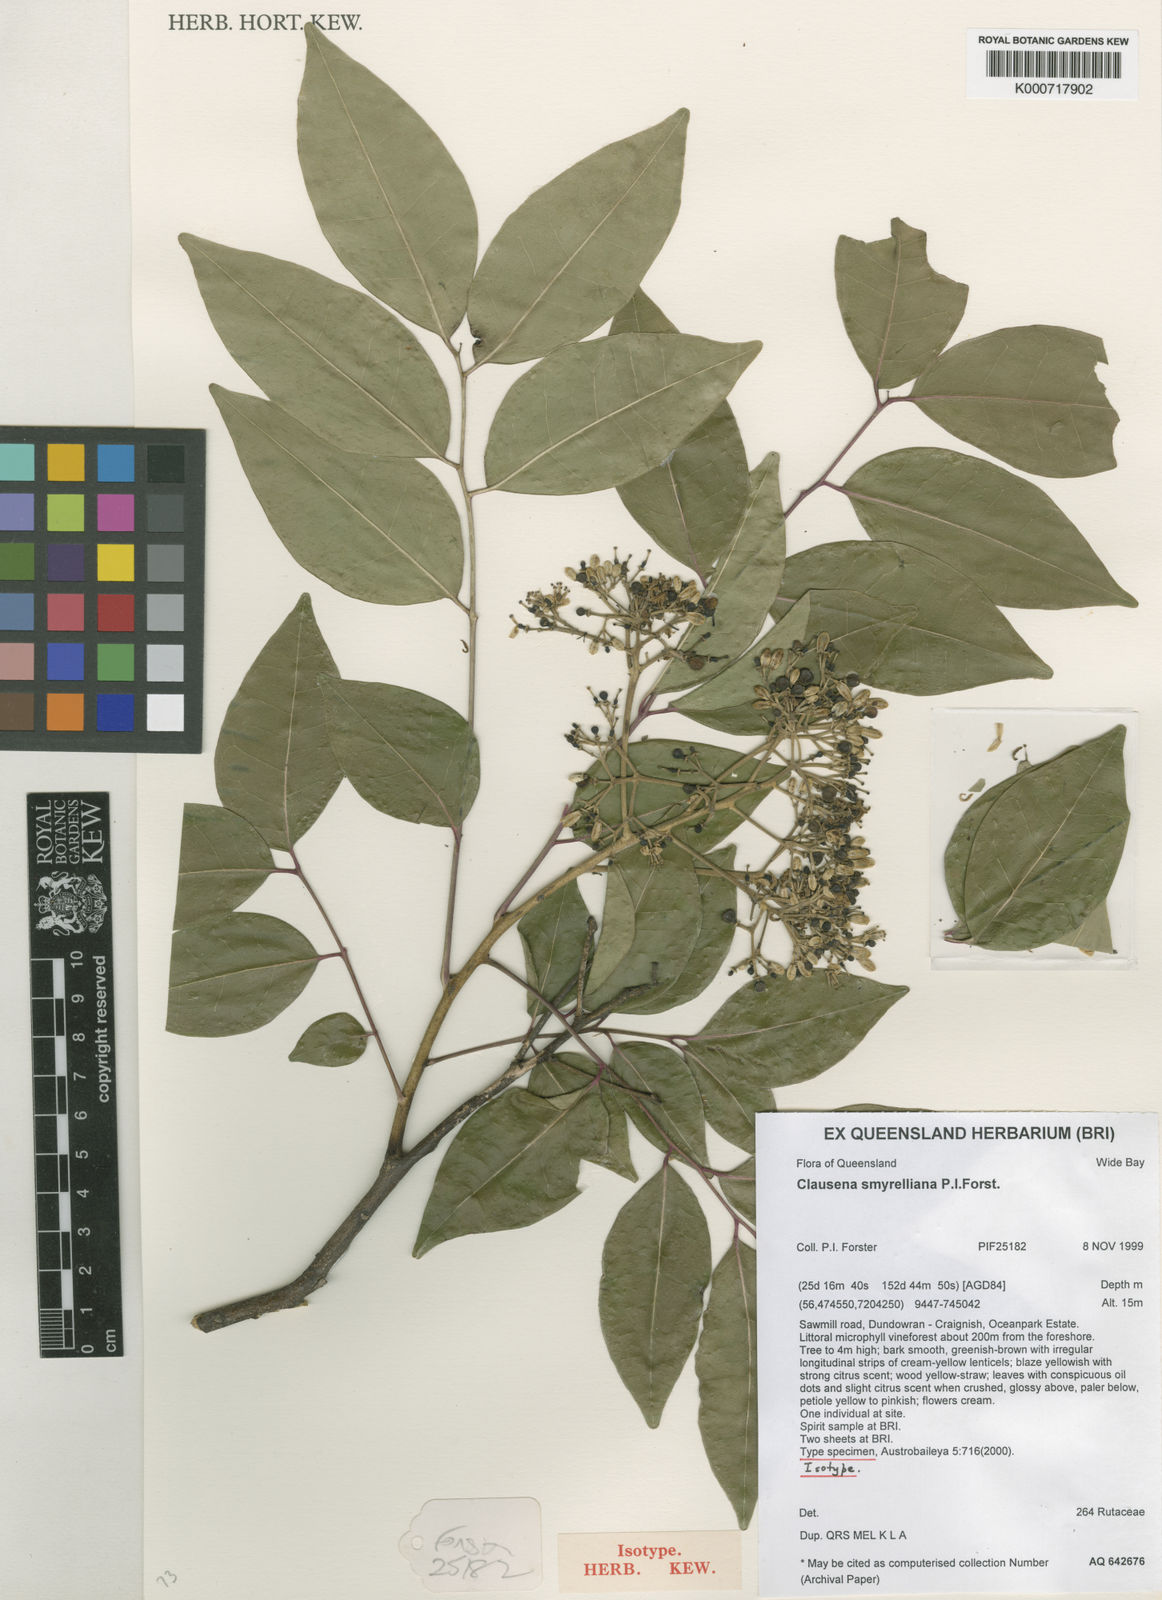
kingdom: Plantae
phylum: Tracheophyta
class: Magnoliopsida
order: Sapindales
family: Rutaceae
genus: Clausena
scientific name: Clausena smyrelliana
